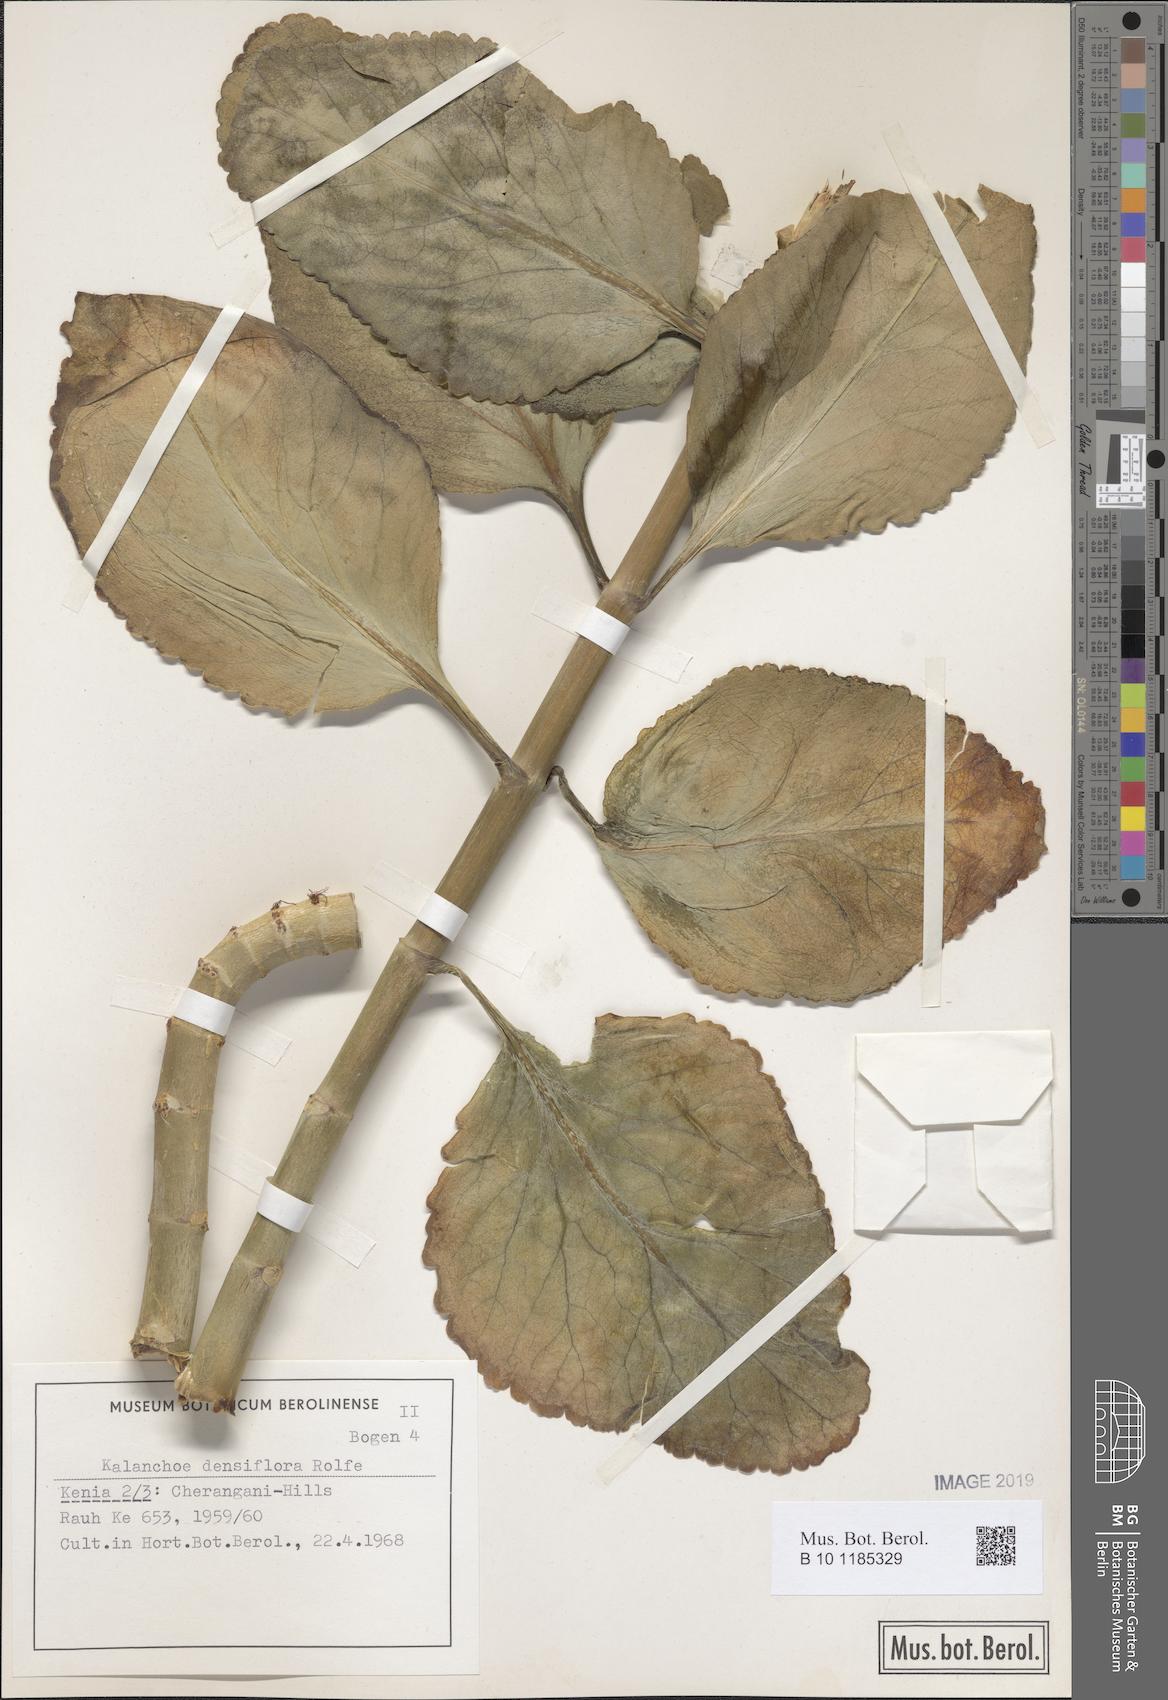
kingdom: Plantae
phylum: Tracheophyta
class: Magnoliopsida
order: Saxifragales
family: Crassulaceae
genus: Kalanchoe
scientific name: Kalanchoe densiflora
